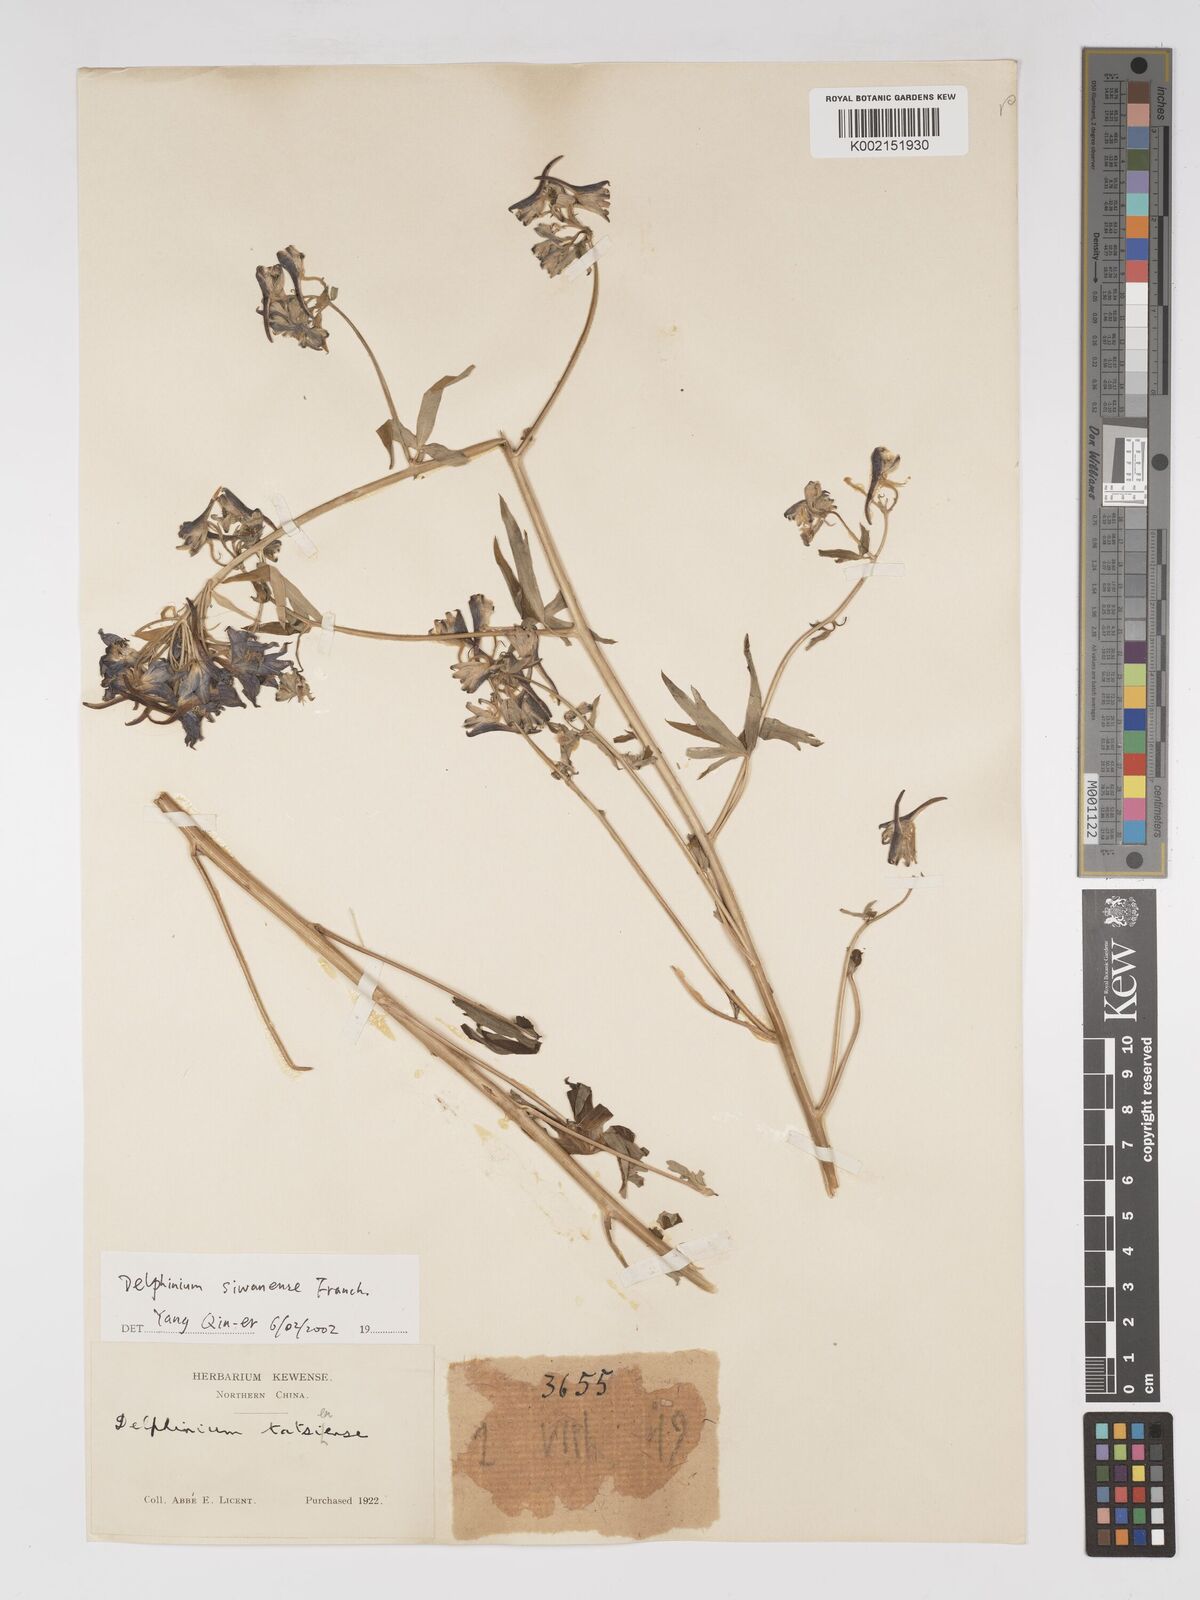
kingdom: Plantae
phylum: Tracheophyta
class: Magnoliopsida
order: Ranunculales
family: Ranunculaceae
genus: Delphinium
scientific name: Delphinium siwanense
